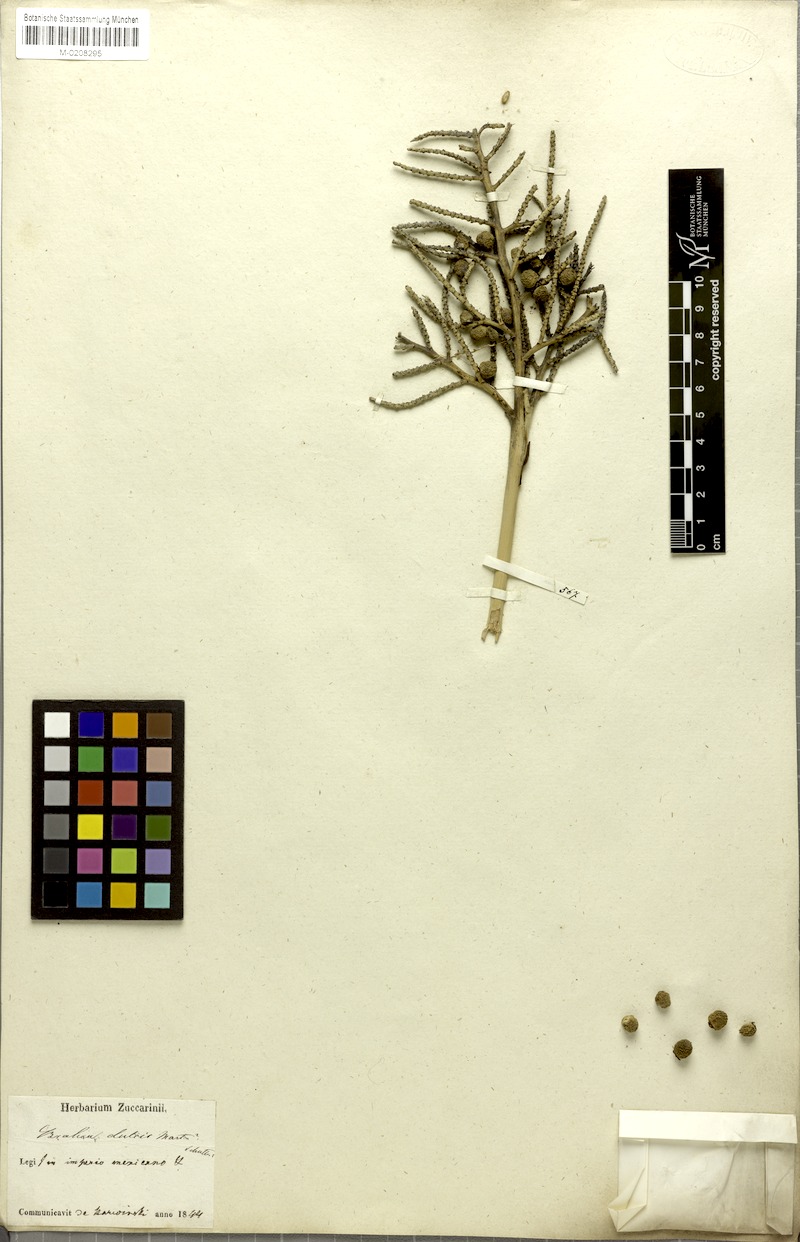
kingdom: Plantae
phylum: Tracheophyta
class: Liliopsida
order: Arecales
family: Arecaceae
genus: Brahea
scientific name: Brahea dulcis
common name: Apak palm
